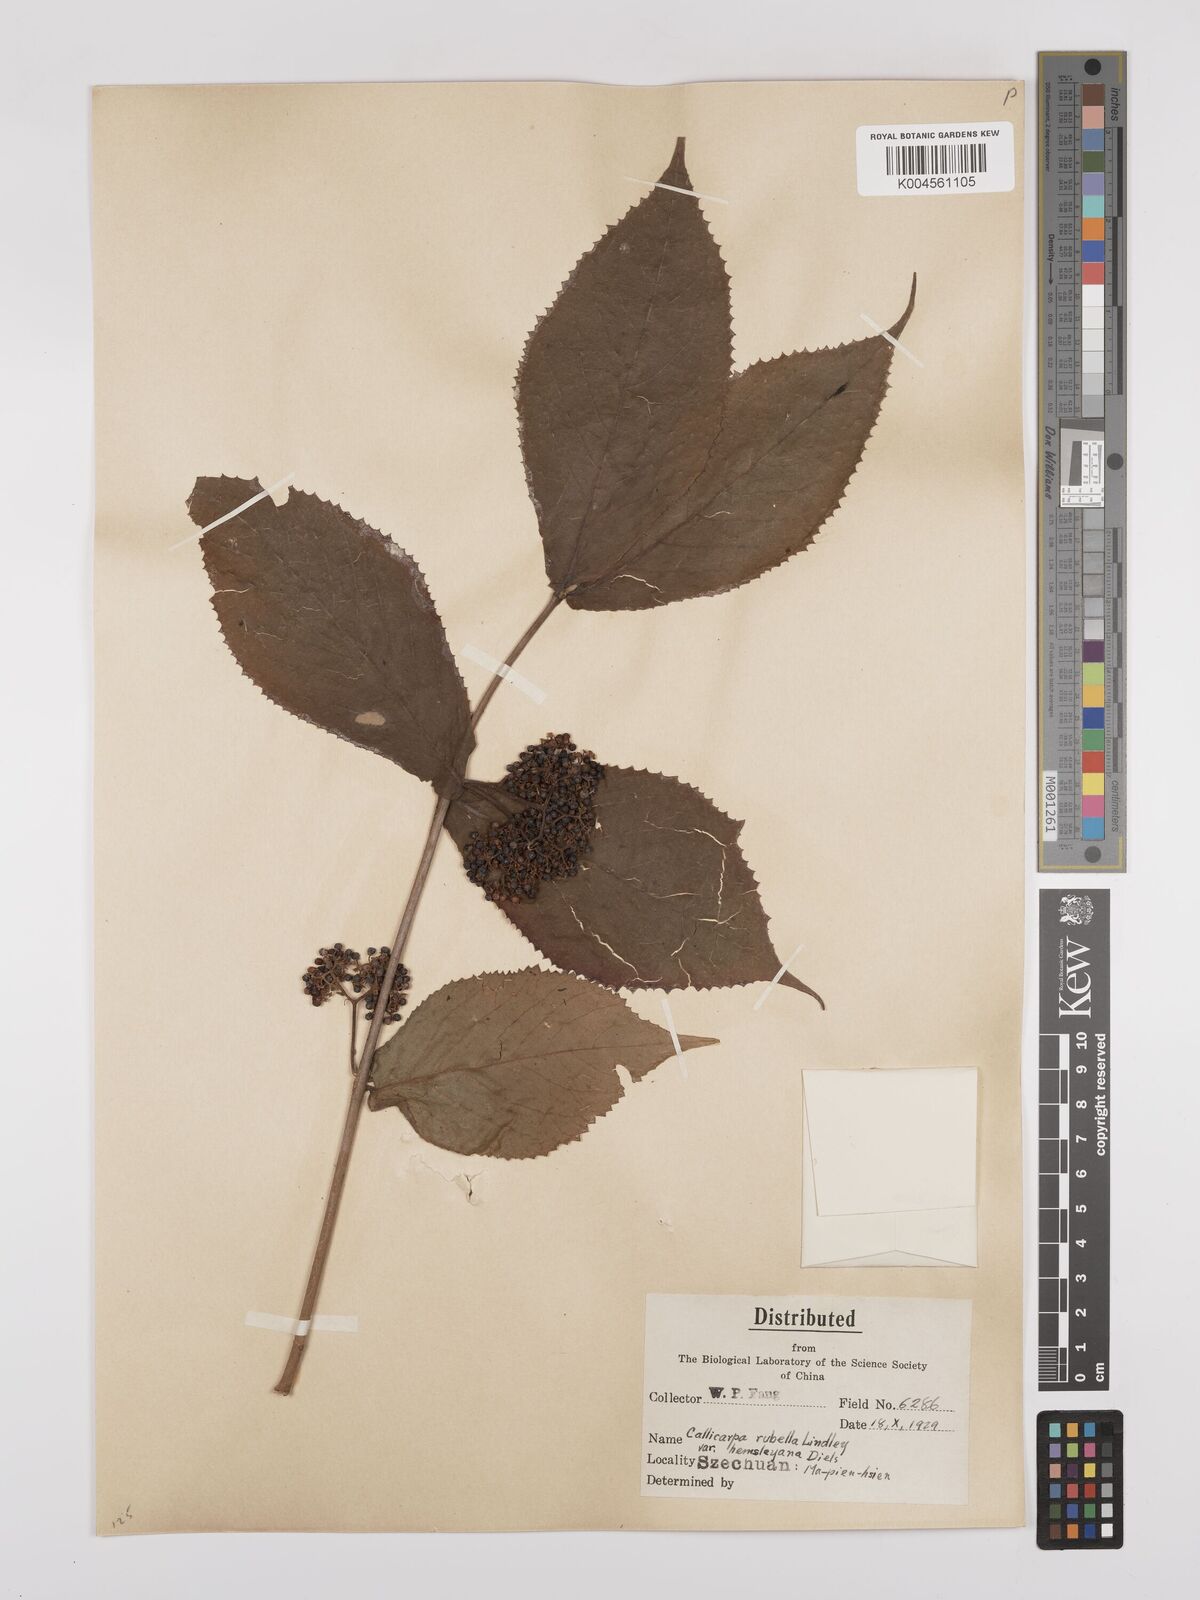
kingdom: Plantae
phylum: Tracheophyta
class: Magnoliopsida
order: Lamiales
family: Lamiaceae
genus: Callicarpa
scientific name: Callicarpa rubella
